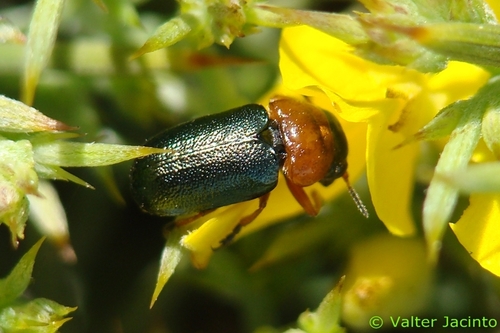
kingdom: Animalia
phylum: Arthropoda
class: Insecta
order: Coleoptera
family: Chrysomelidae
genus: Smaragdina
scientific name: Smaragdina clavareaui
